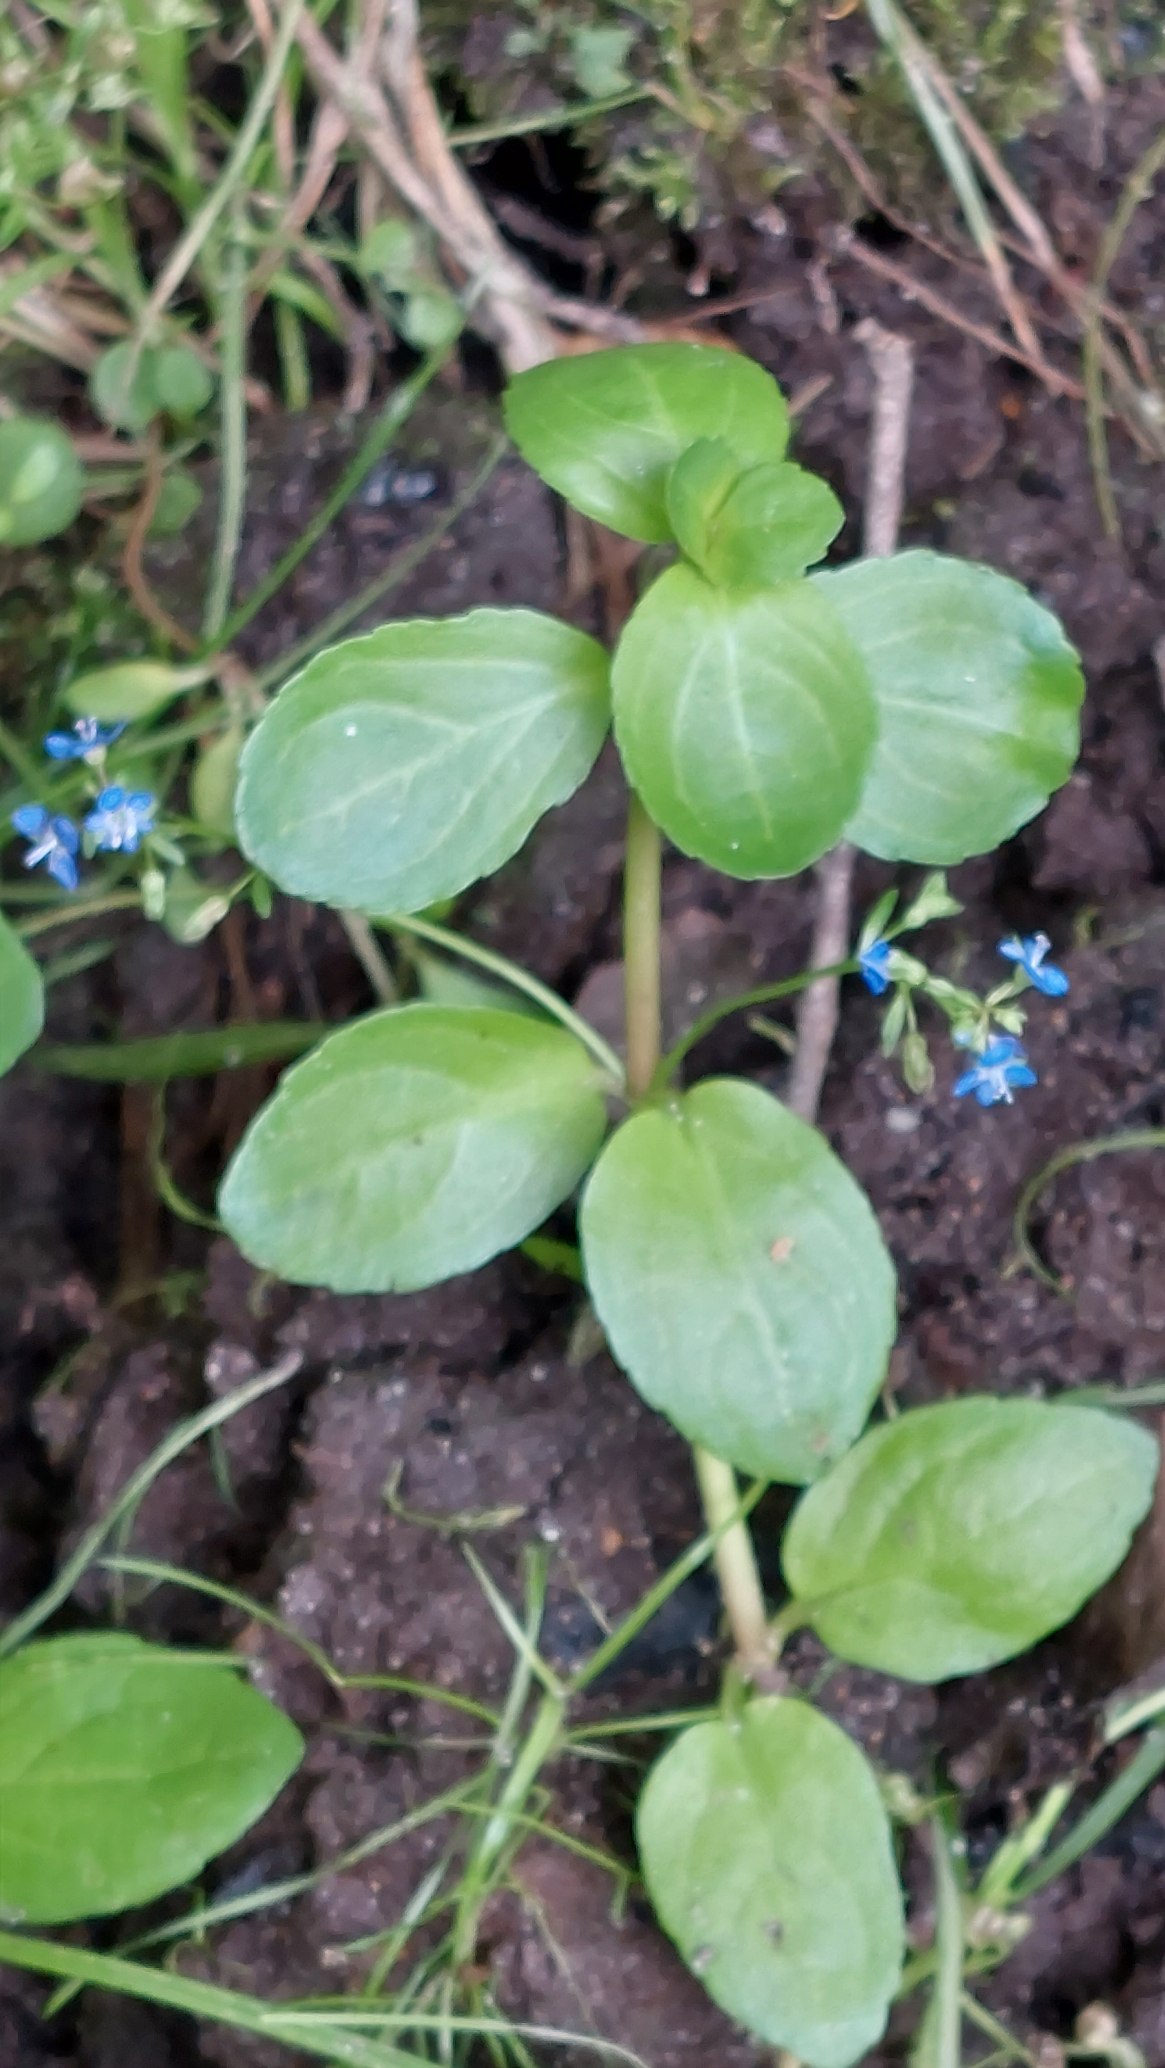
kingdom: Plantae
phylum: Tracheophyta
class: Magnoliopsida
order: Lamiales
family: Plantaginaceae
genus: Veronica
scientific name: Veronica beccabunga
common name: Tykbladet ærenpris
